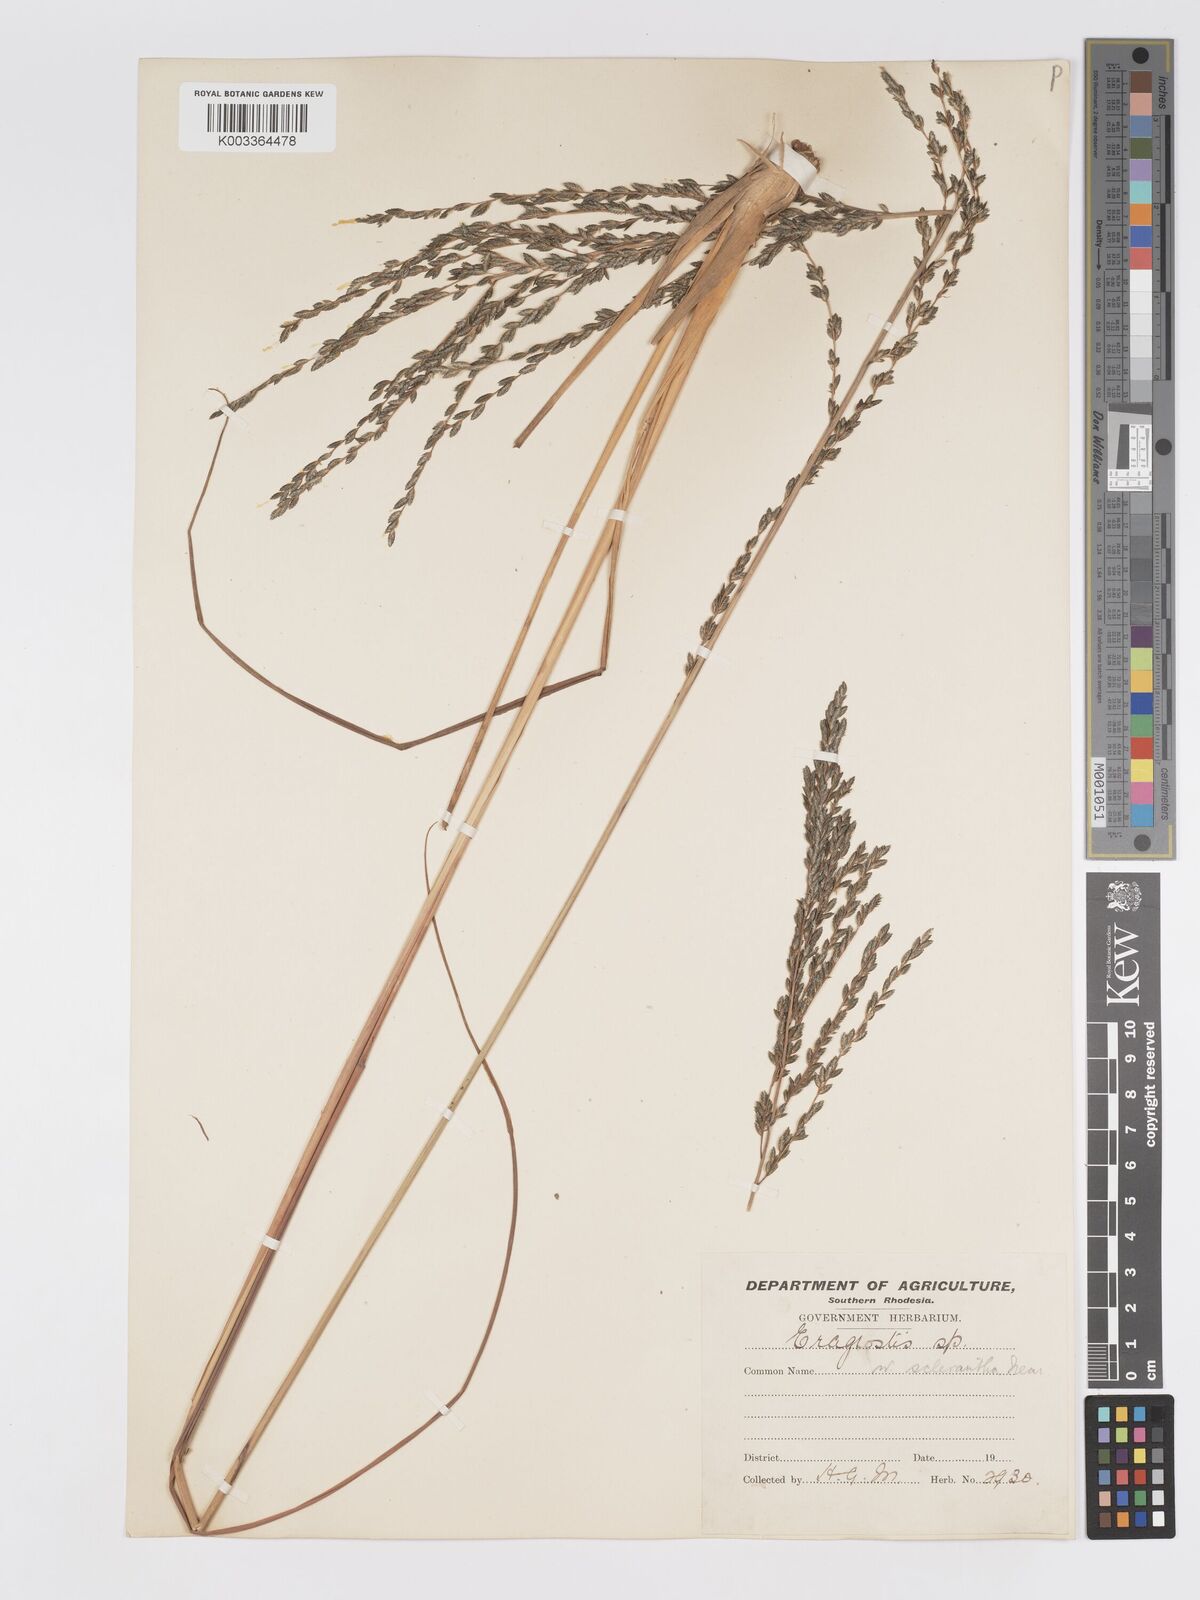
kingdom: Plantae
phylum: Tracheophyta
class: Liliopsida
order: Poales
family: Poaceae
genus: Eragrostis
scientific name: Eragrostis sclerantha
